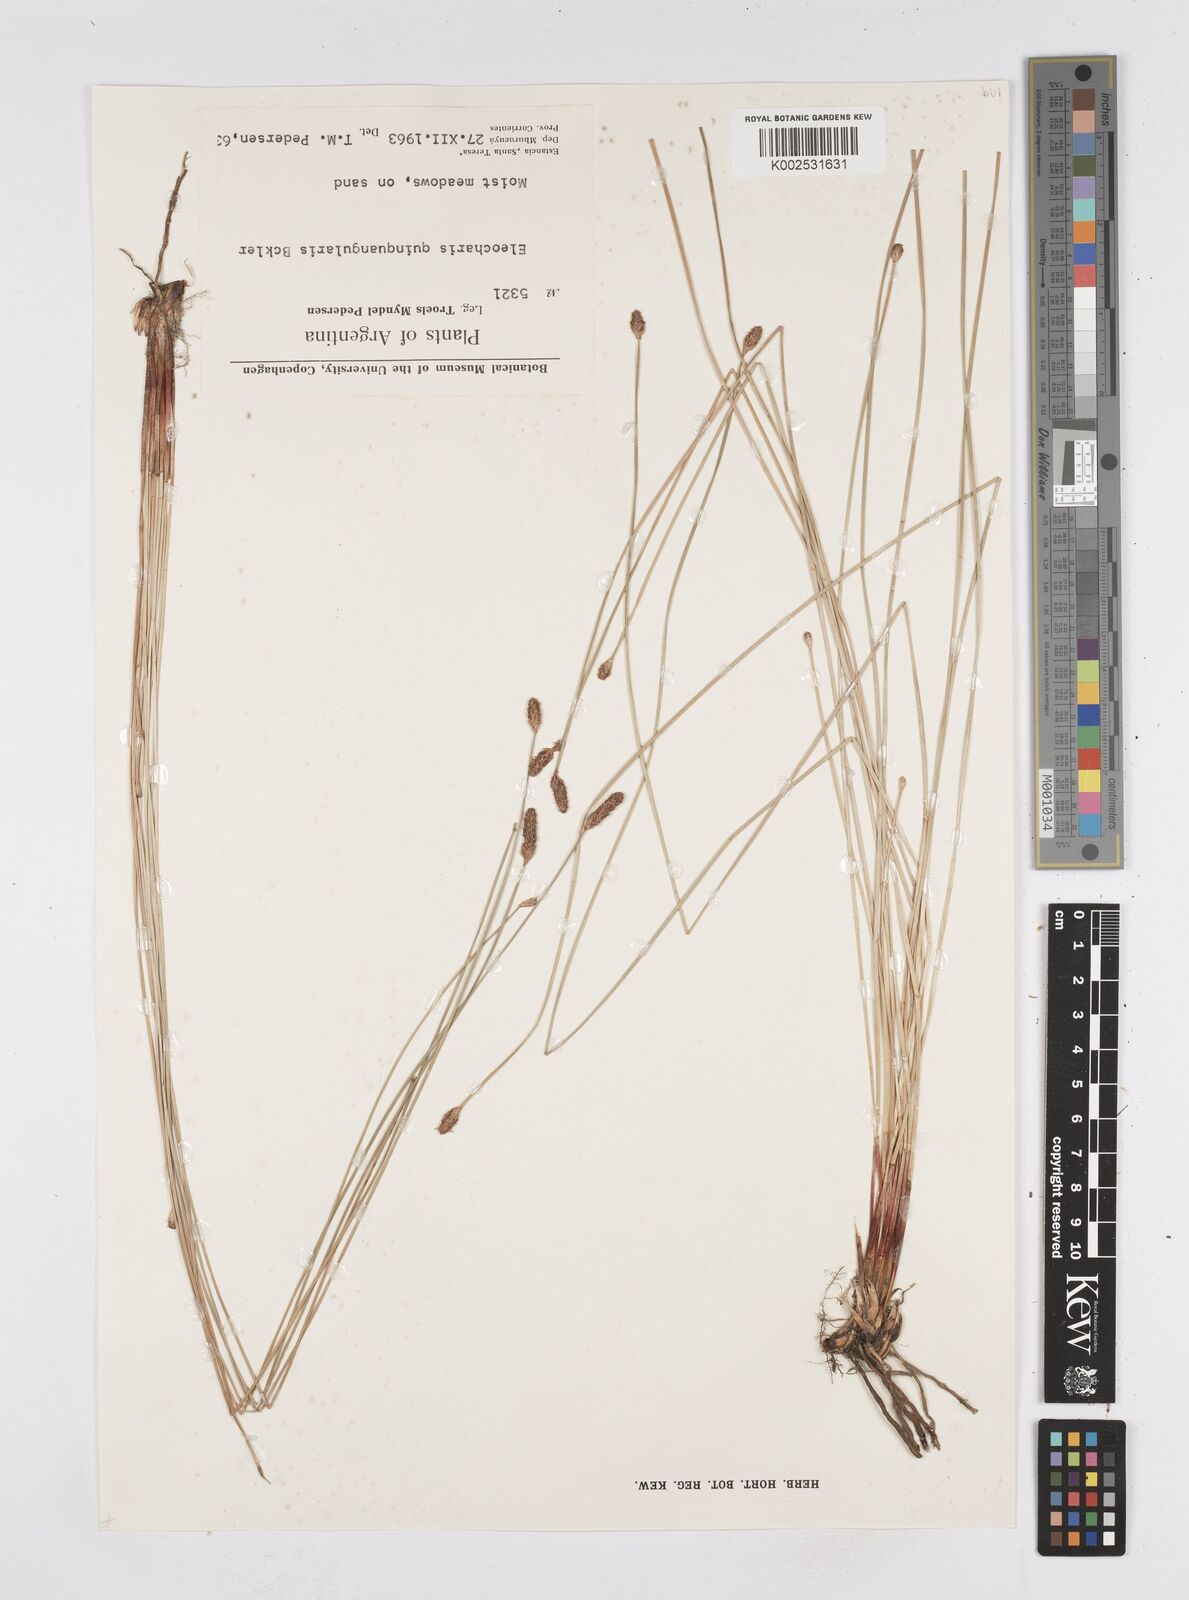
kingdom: Plantae
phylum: Tracheophyta
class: Liliopsida
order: Poales
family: Cyperaceae
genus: Eleocharis
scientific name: Eleocharis emarginata
